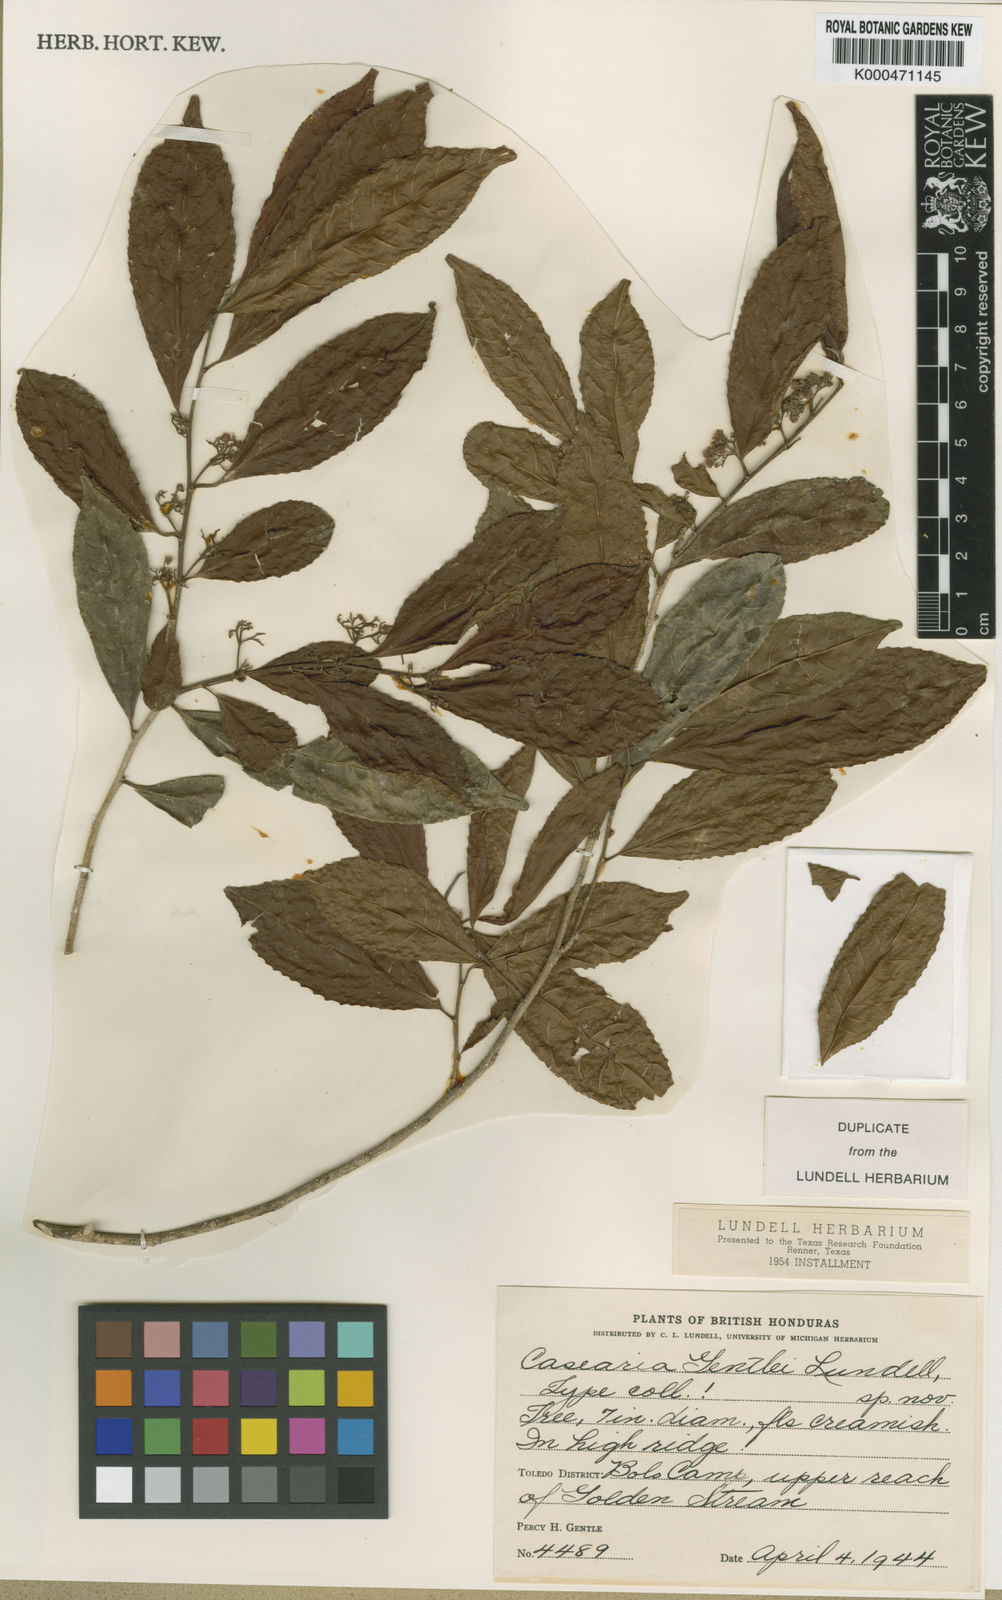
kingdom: Plantae
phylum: Tracheophyta
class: Magnoliopsida
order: Malpighiales
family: Salicaceae
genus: Casearia
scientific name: Casearia corymbosa
